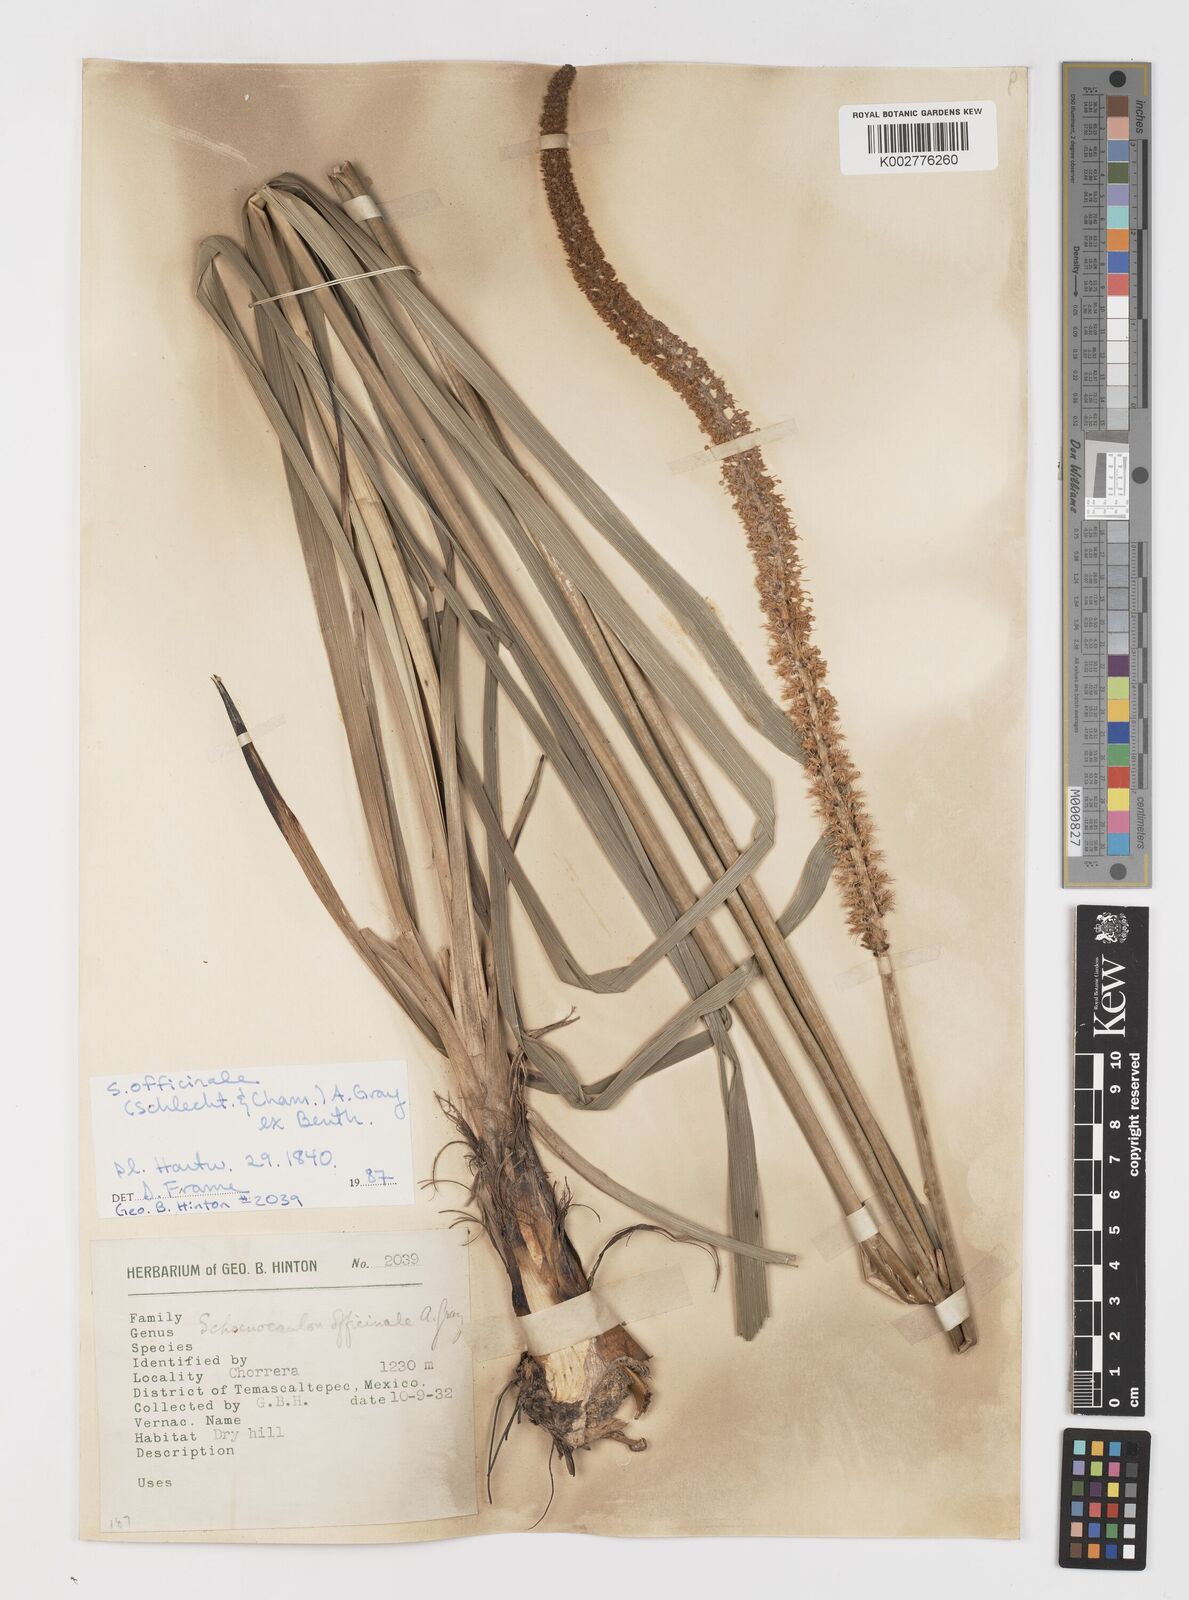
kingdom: Plantae
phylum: Tracheophyta
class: Liliopsida
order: Liliales
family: Melanthiaceae
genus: Schoenocaulon
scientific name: Schoenocaulon officinale
